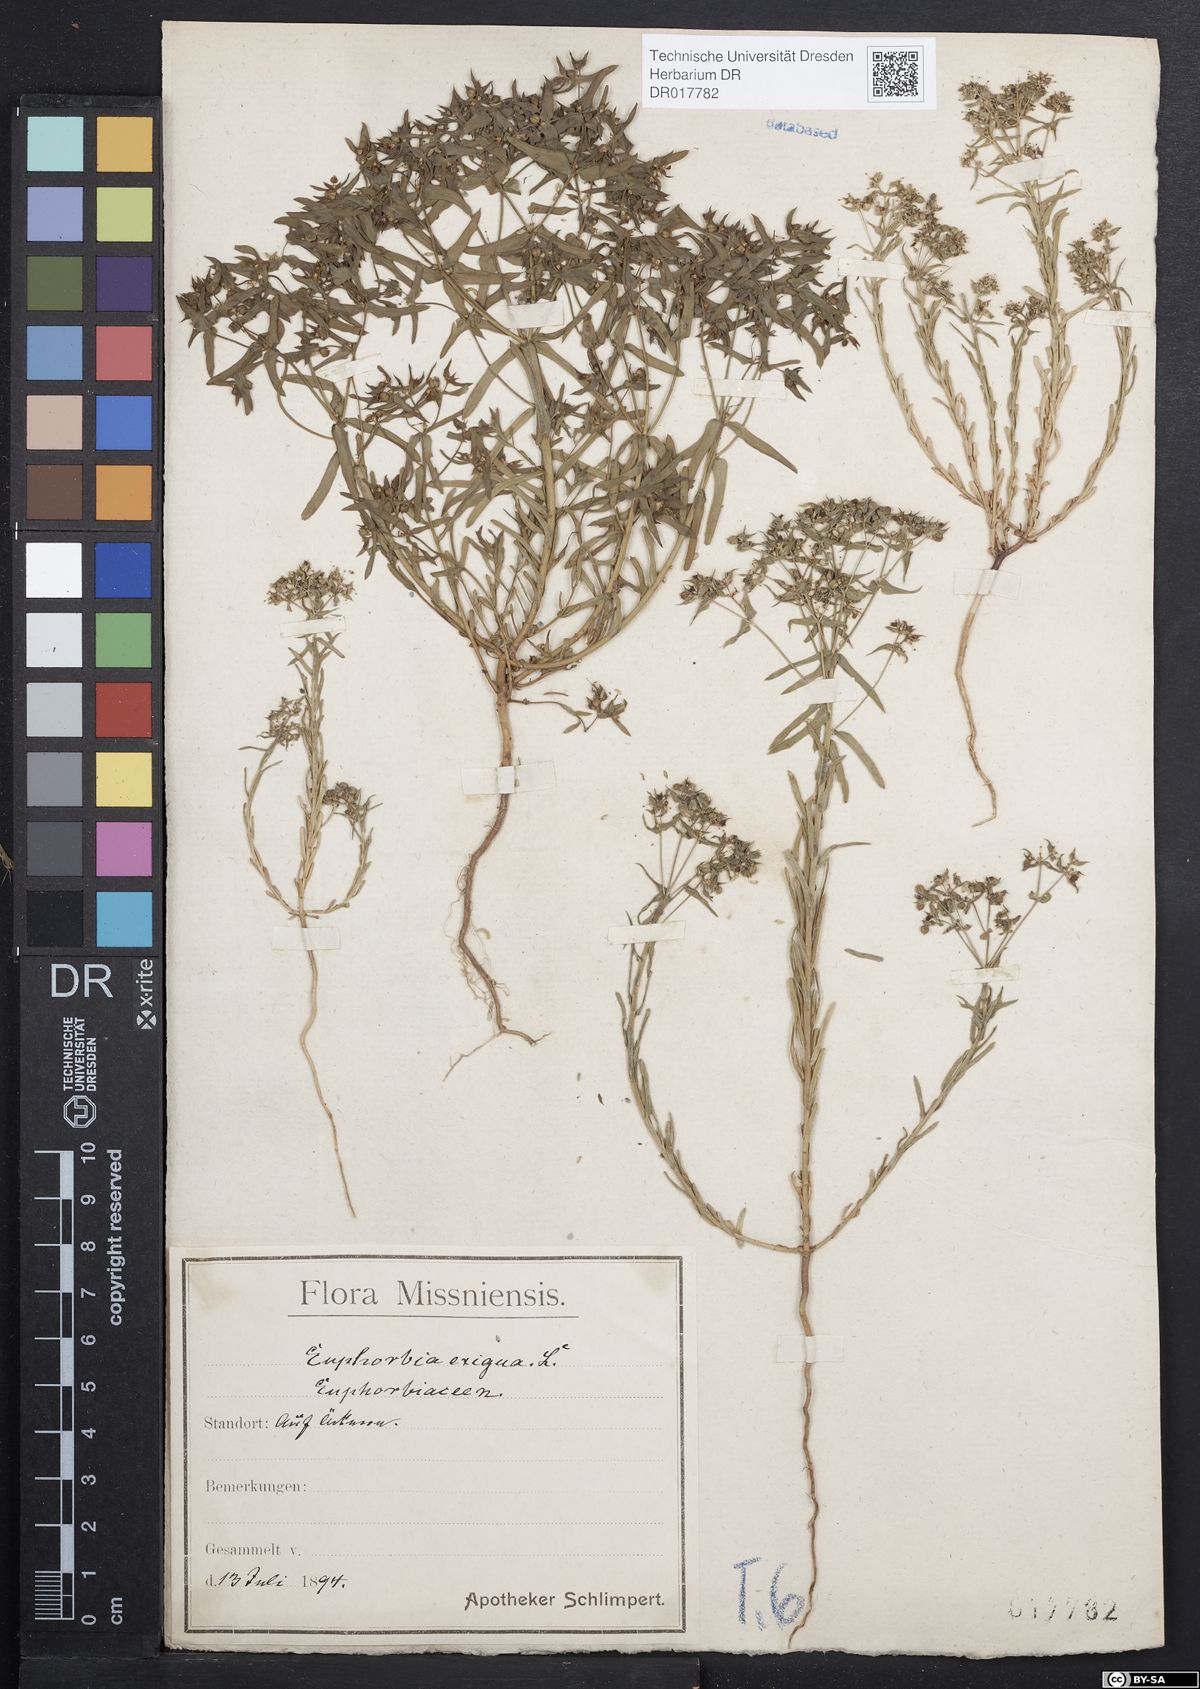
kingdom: Plantae
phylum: Tracheophyta
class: Magnoliopsida
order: Malpighiales
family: Euphorbiaceae
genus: Euphorbia
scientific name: Euphorbia exigua
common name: Dwarf spurge
